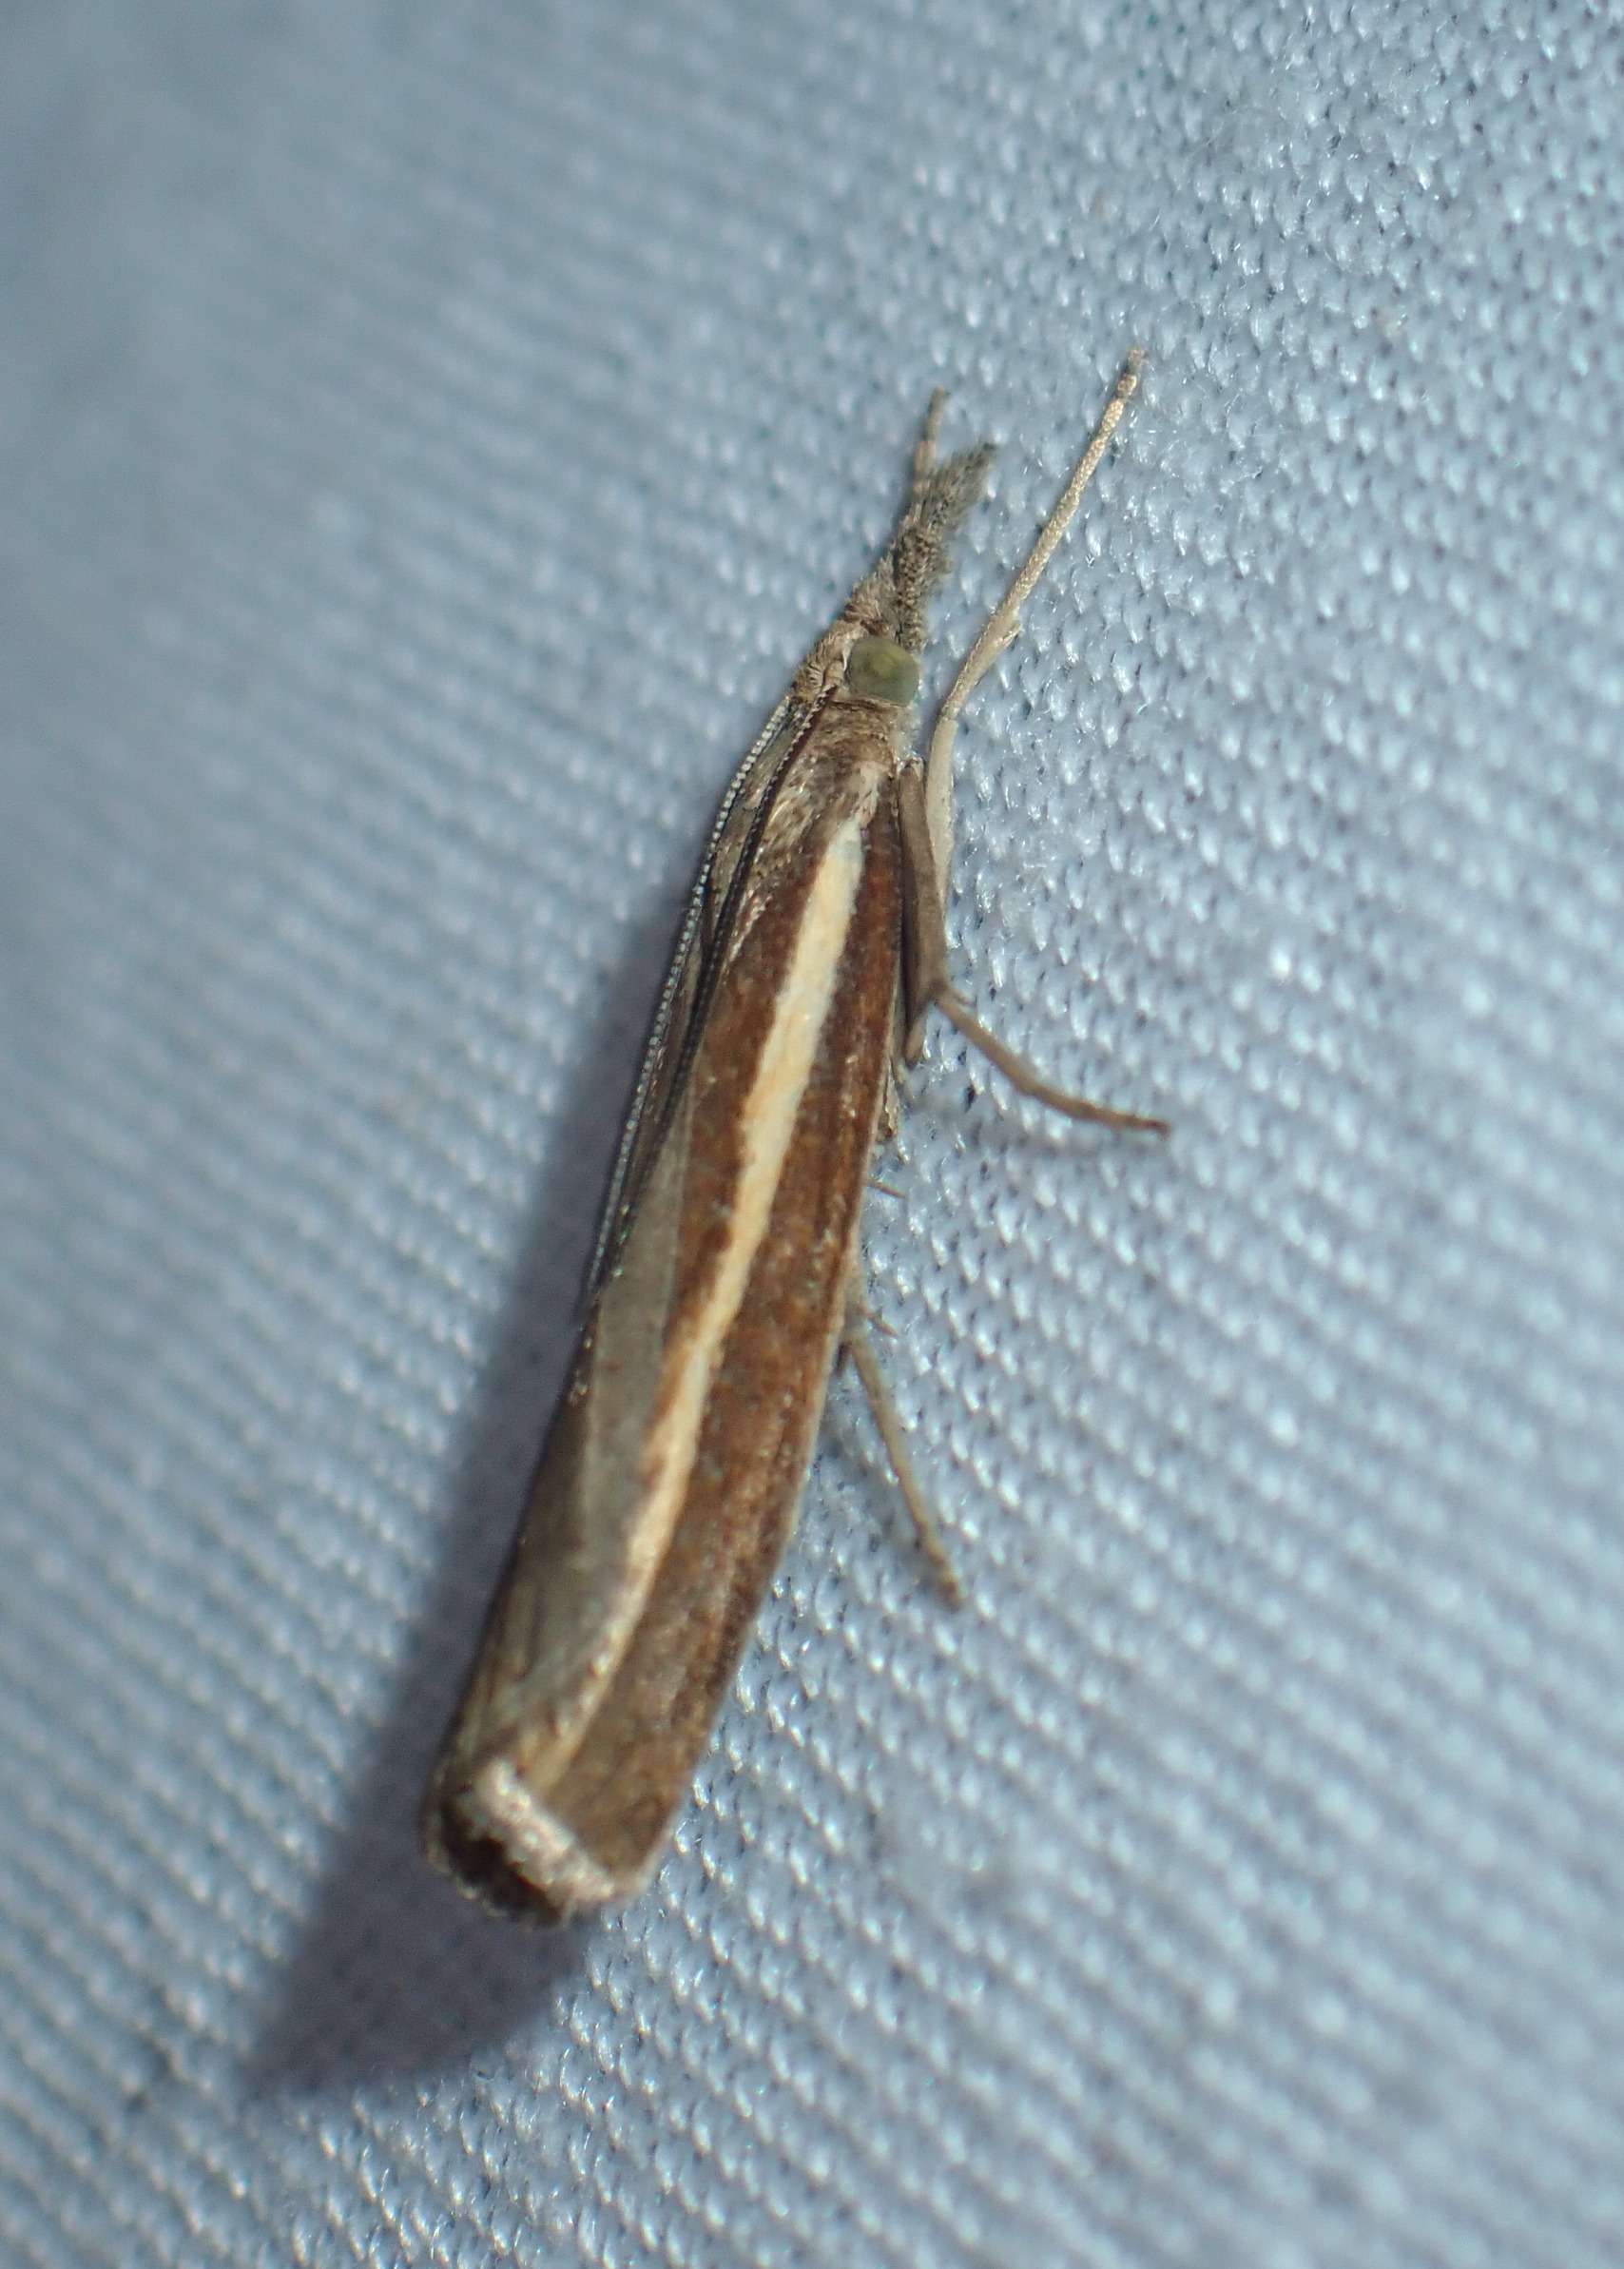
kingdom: Animalia
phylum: Arthropoda
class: Insecta
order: Lepidoptera
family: Crambidae
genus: Agriphila
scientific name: Agriphila tristellus
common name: Okkergult græsmøl
